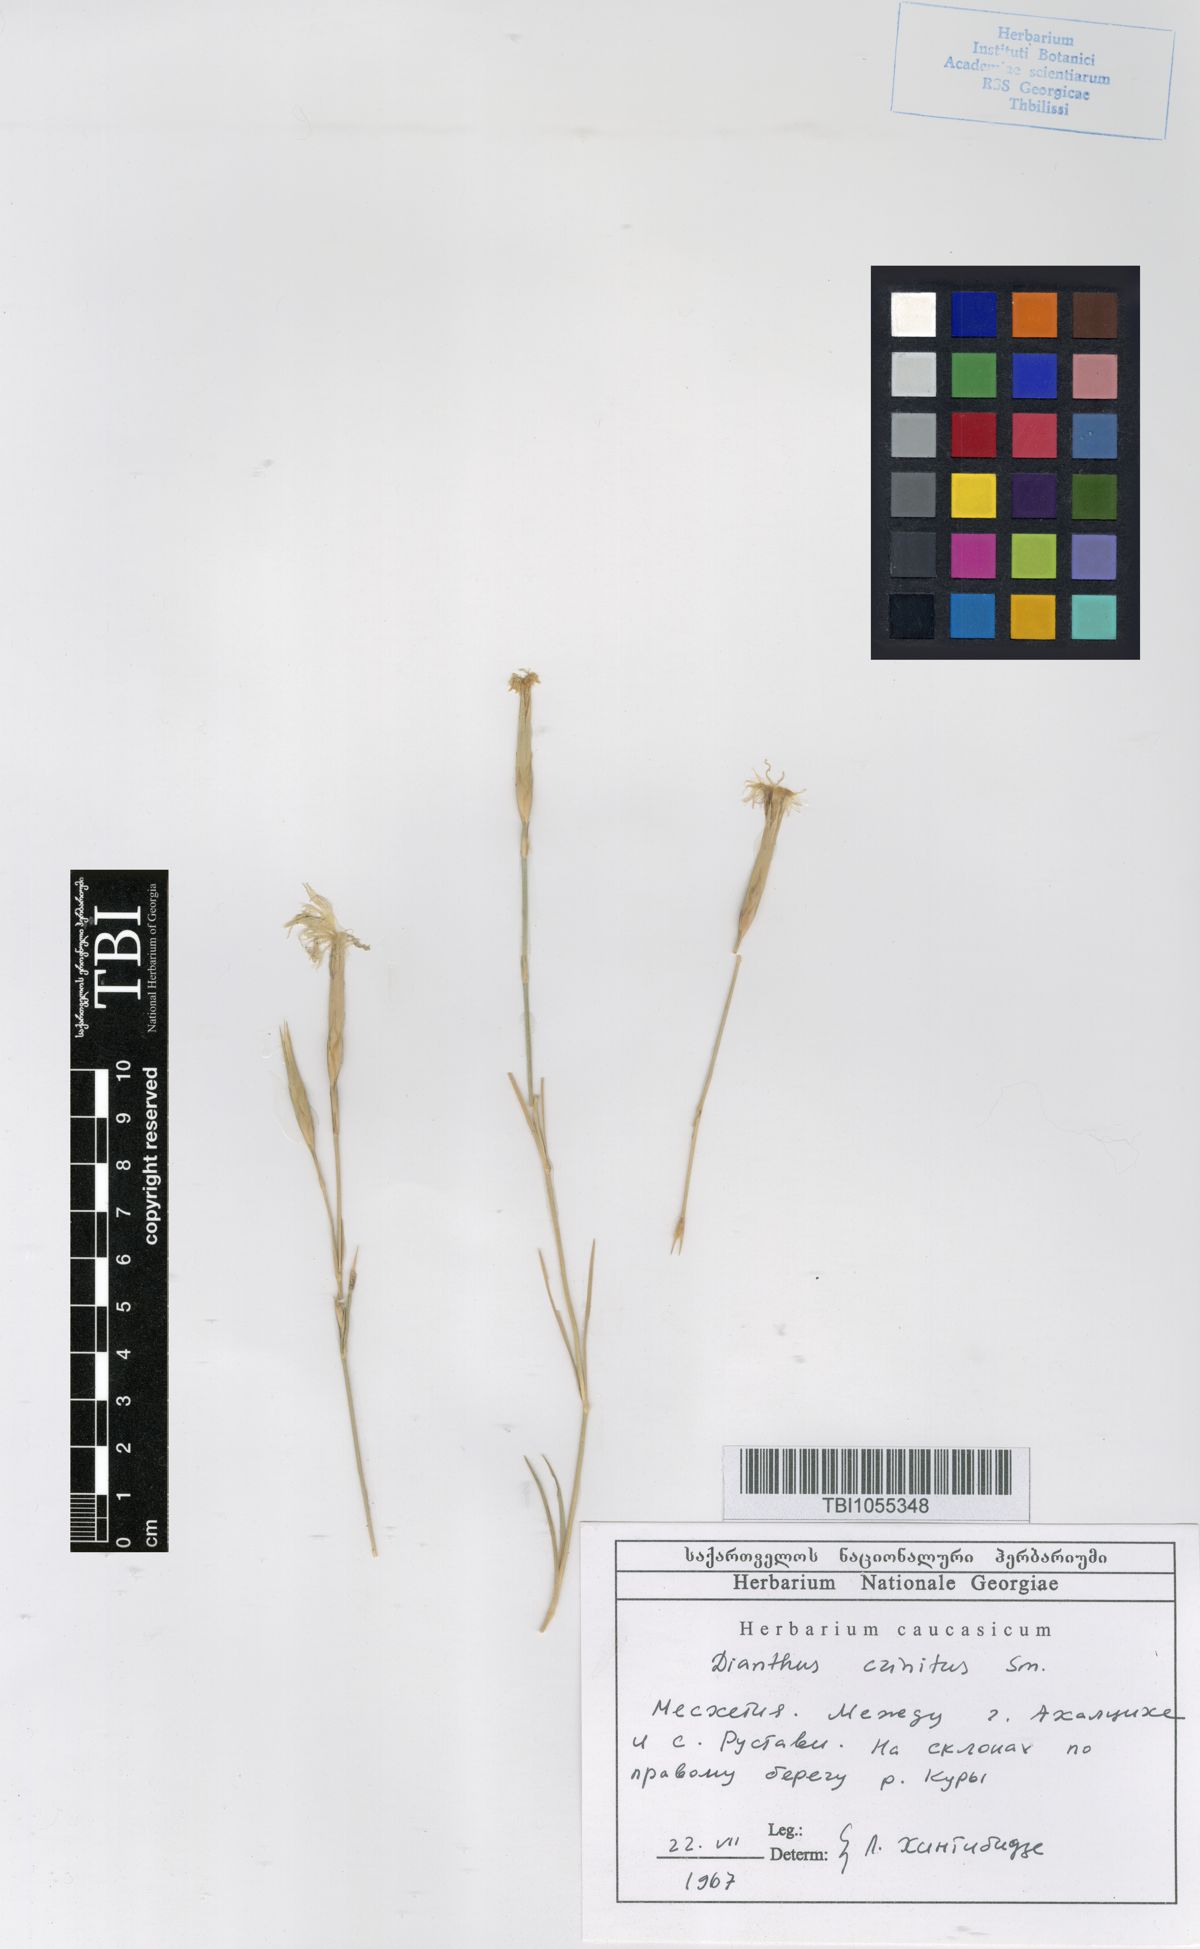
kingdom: Plantae
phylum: Tracheophyta
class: Magnoliopsida
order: Caryophyllales
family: Caryophyllaceae
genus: Dianthus
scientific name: Dianthus crinitus
